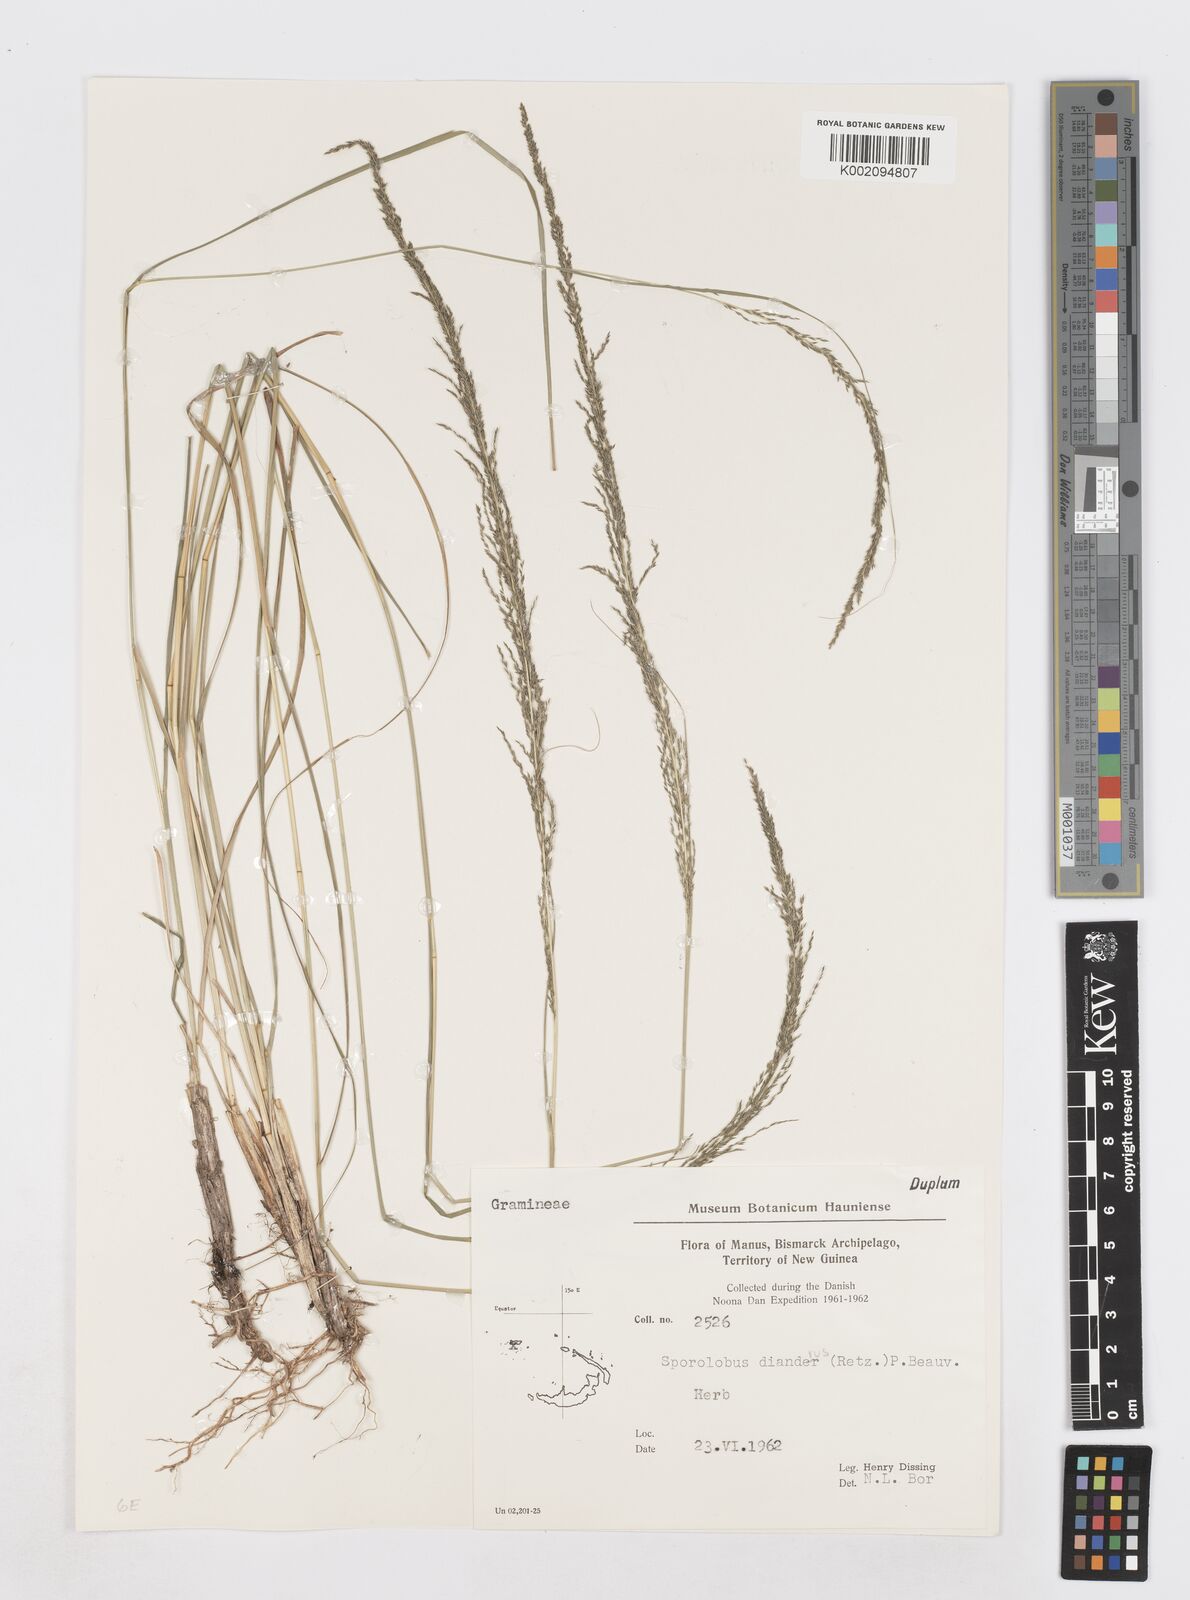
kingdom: Plantae
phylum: Tracheophyta
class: Liliopsida
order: Poales
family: Poaceae
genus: Sporobolus
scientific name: Sporobolus diandrus
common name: Tussock dropseed
